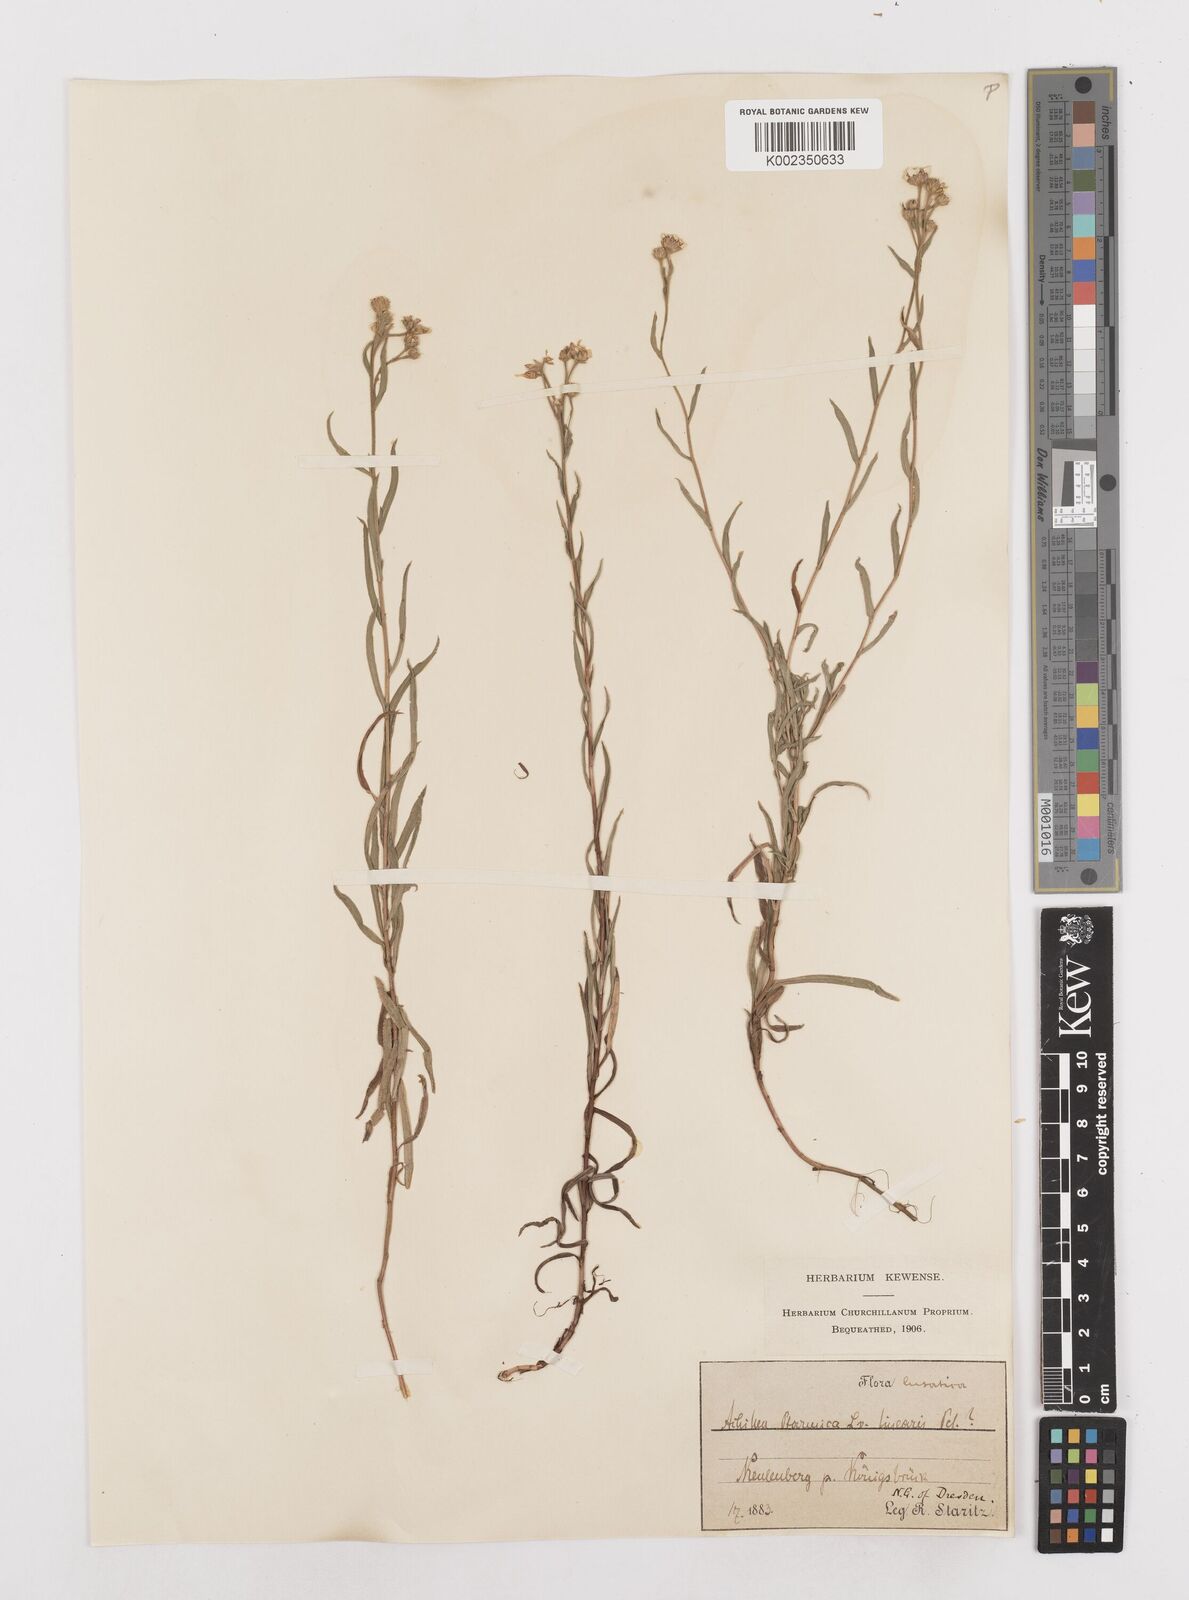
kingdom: Plantae
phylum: Tracheophyta
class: Magnoliopsida
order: Asterales
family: Asteraceae
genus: Achillea
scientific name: Achillea ptarmica
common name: Sneezeweed
